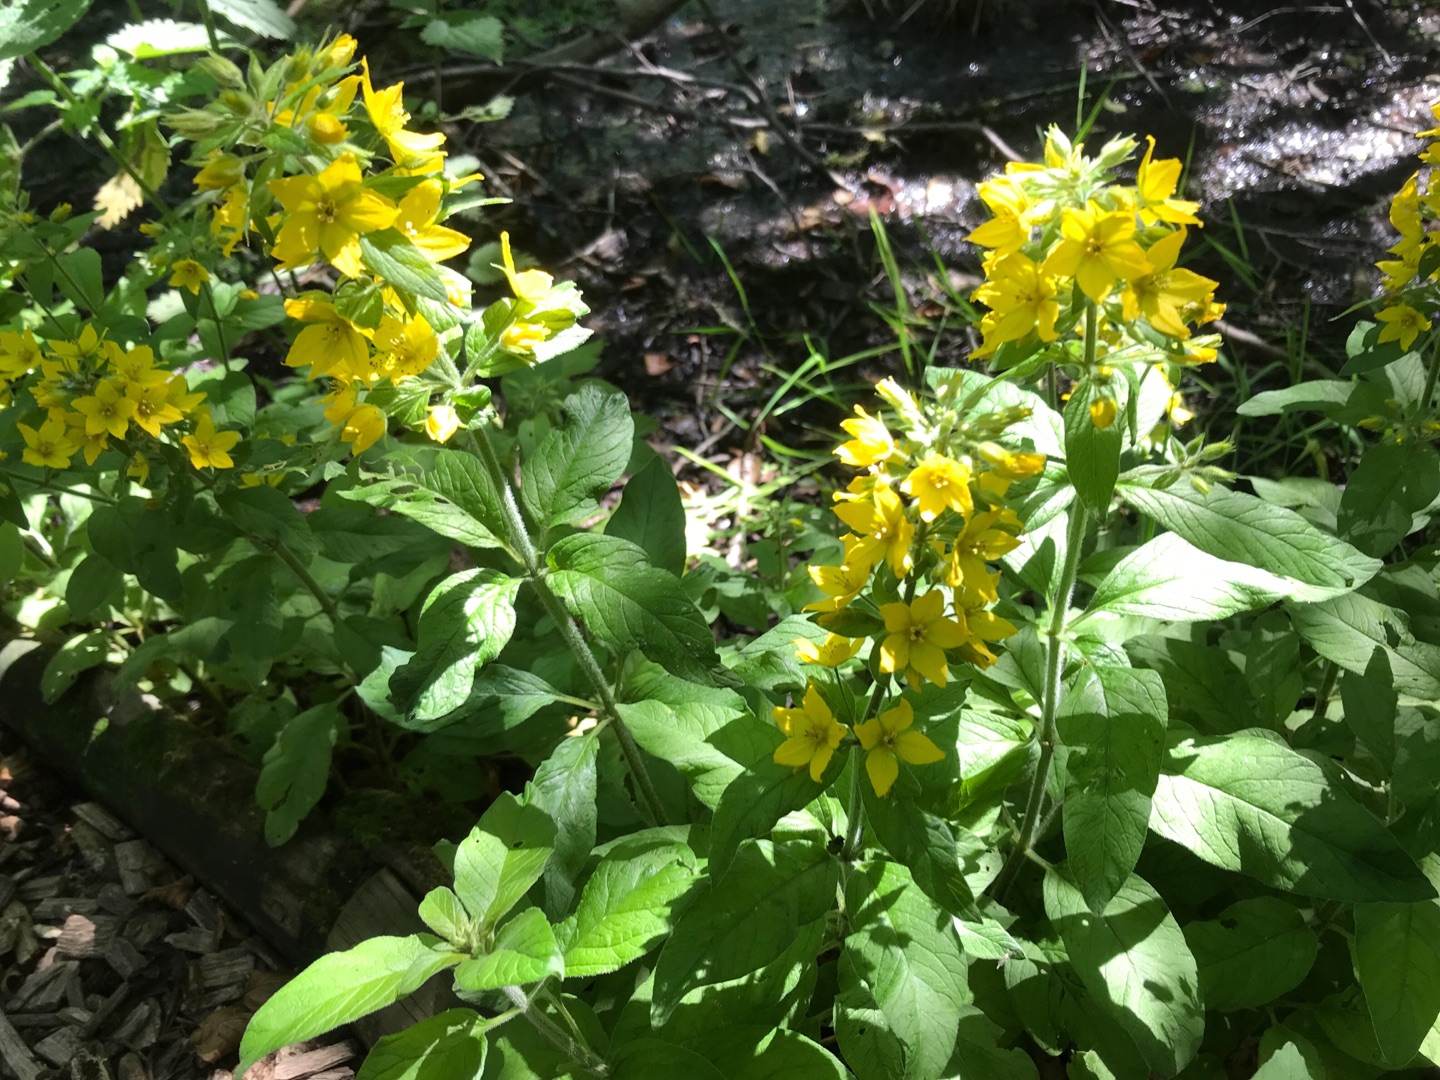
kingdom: Plantae
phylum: Tracheophyta
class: Magnoliopsida
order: Ericales
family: Primulaceae
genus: Lysimachia
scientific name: Lysimachia punctata
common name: Prikbladet fredløs
